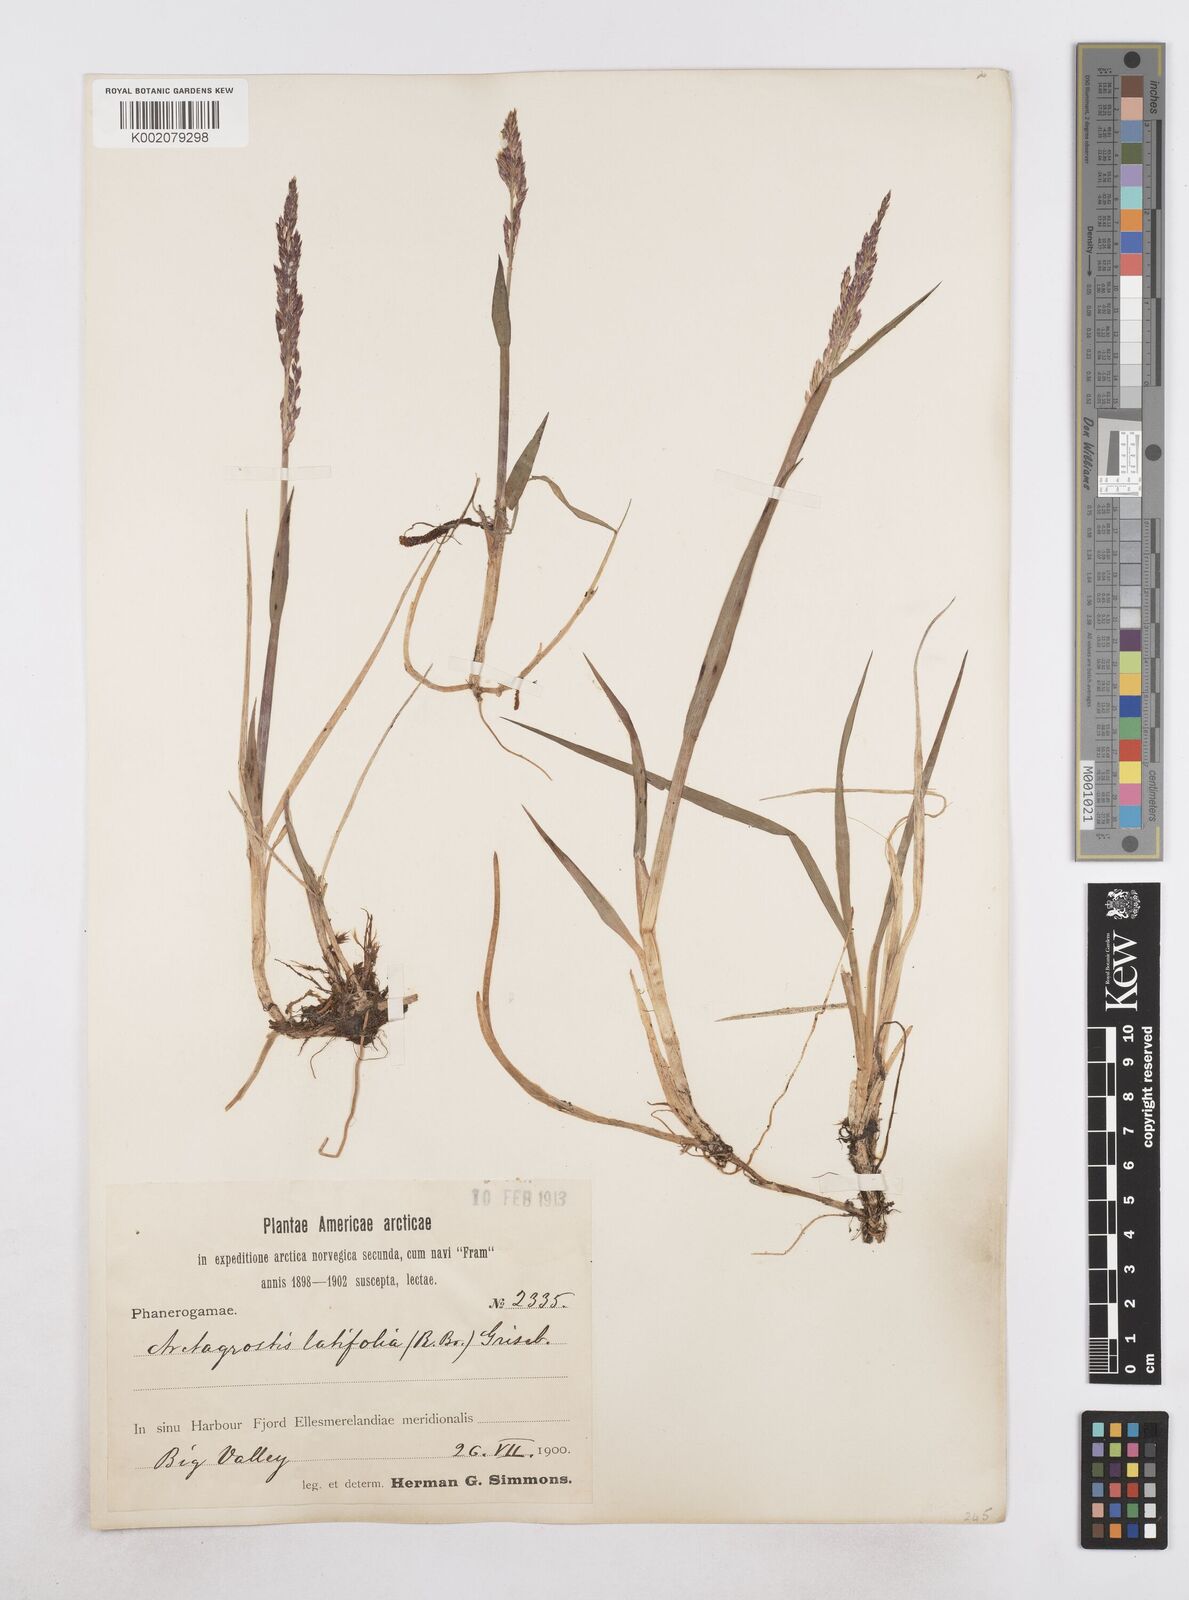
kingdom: Plantae
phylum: Tracheophyta
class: Liliopsida
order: Poales
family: Poaceae
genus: Arctagrostis
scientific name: Arctagrostis latifolia
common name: Arctic grass
